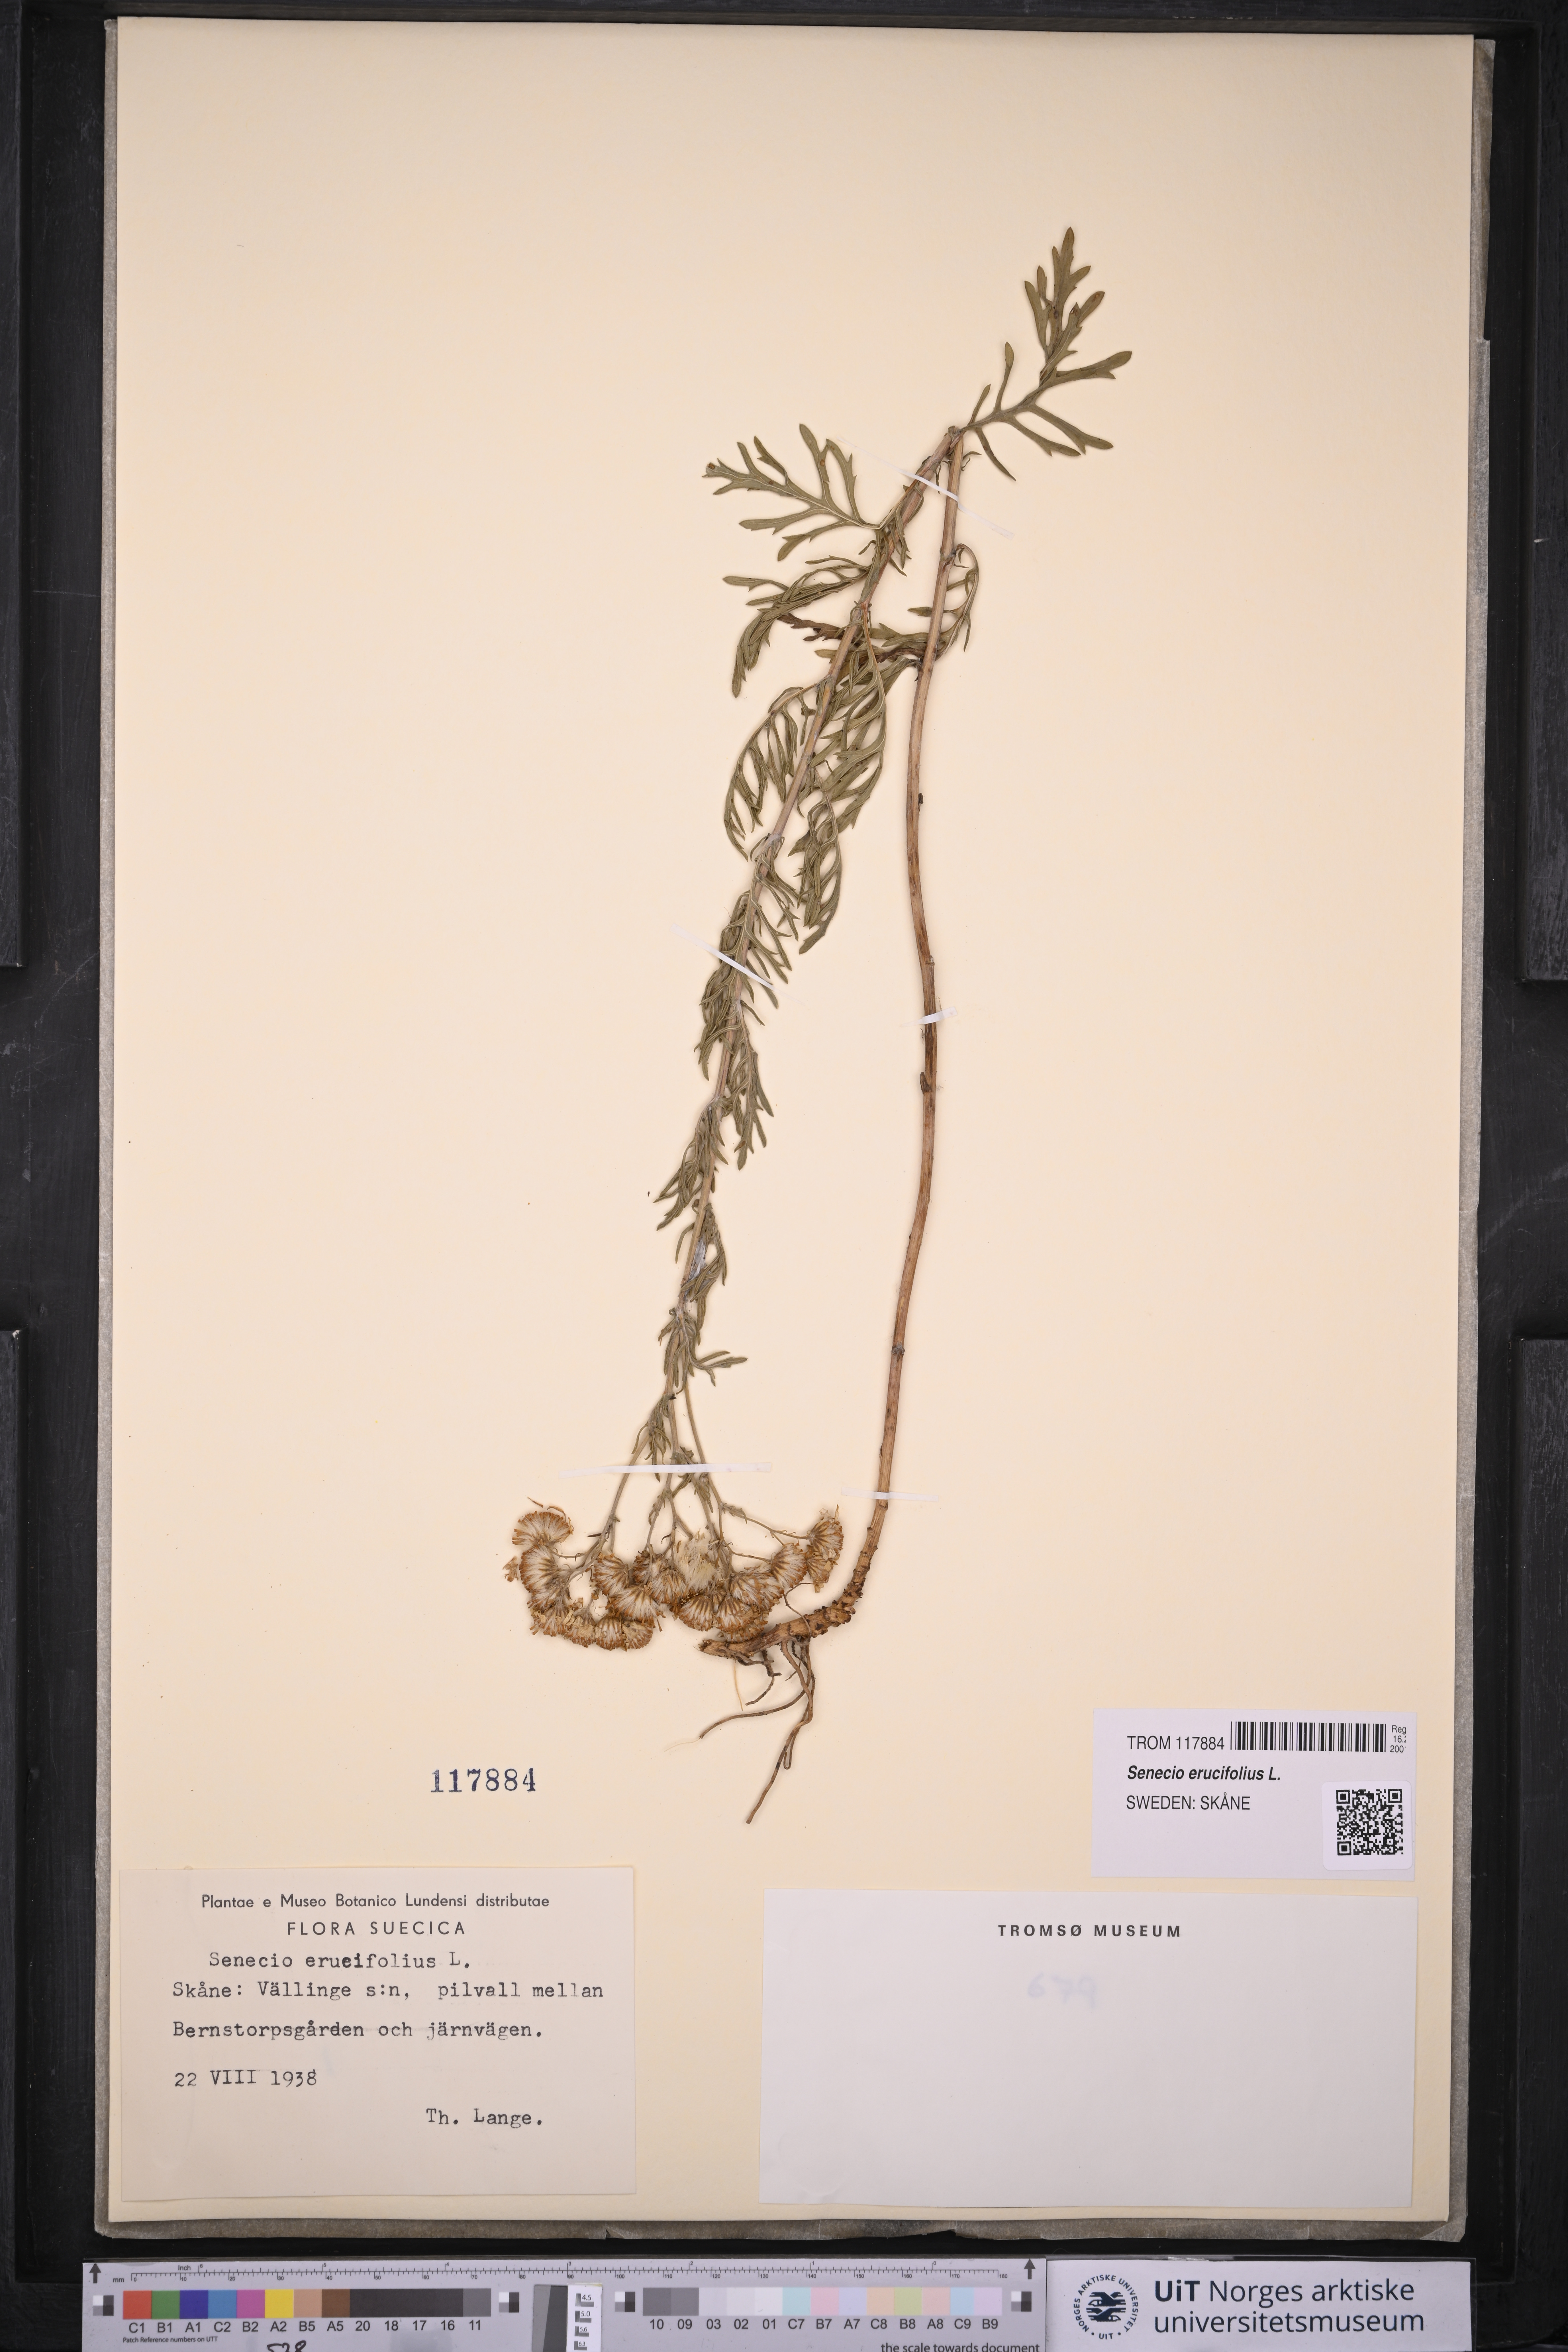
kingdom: Plantae
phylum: Tracheophyta
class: Magnoliopsida
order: Asterales
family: Asteraceae
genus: Jacobaea
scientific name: Jacobaea erucifolia
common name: Hoary ragwort
